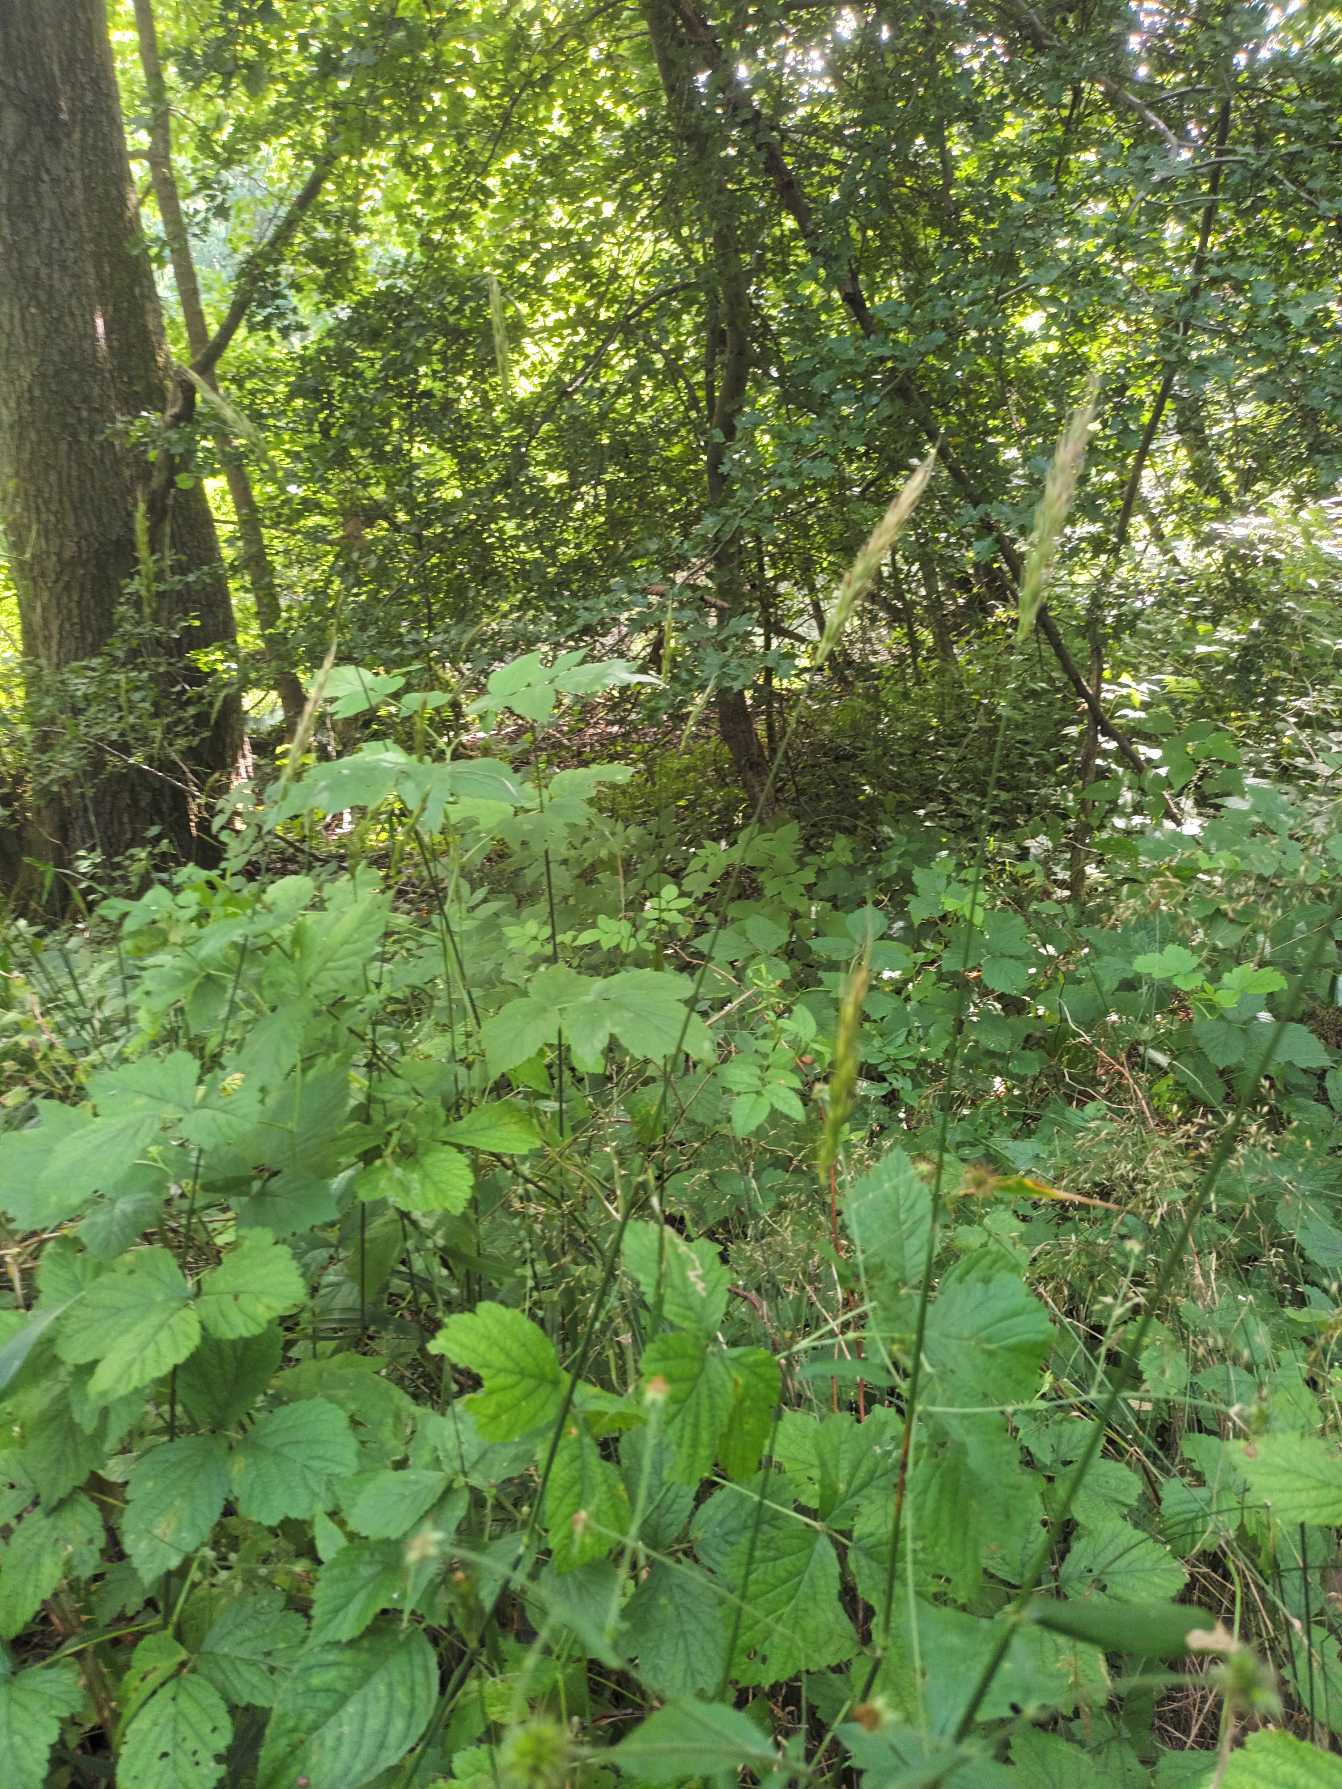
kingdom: Plantae
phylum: Tracheophyta
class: Liliopsida
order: Poales
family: Poaceae
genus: Hordelymus
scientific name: Hordelymus europaeus
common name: Skovbyg
